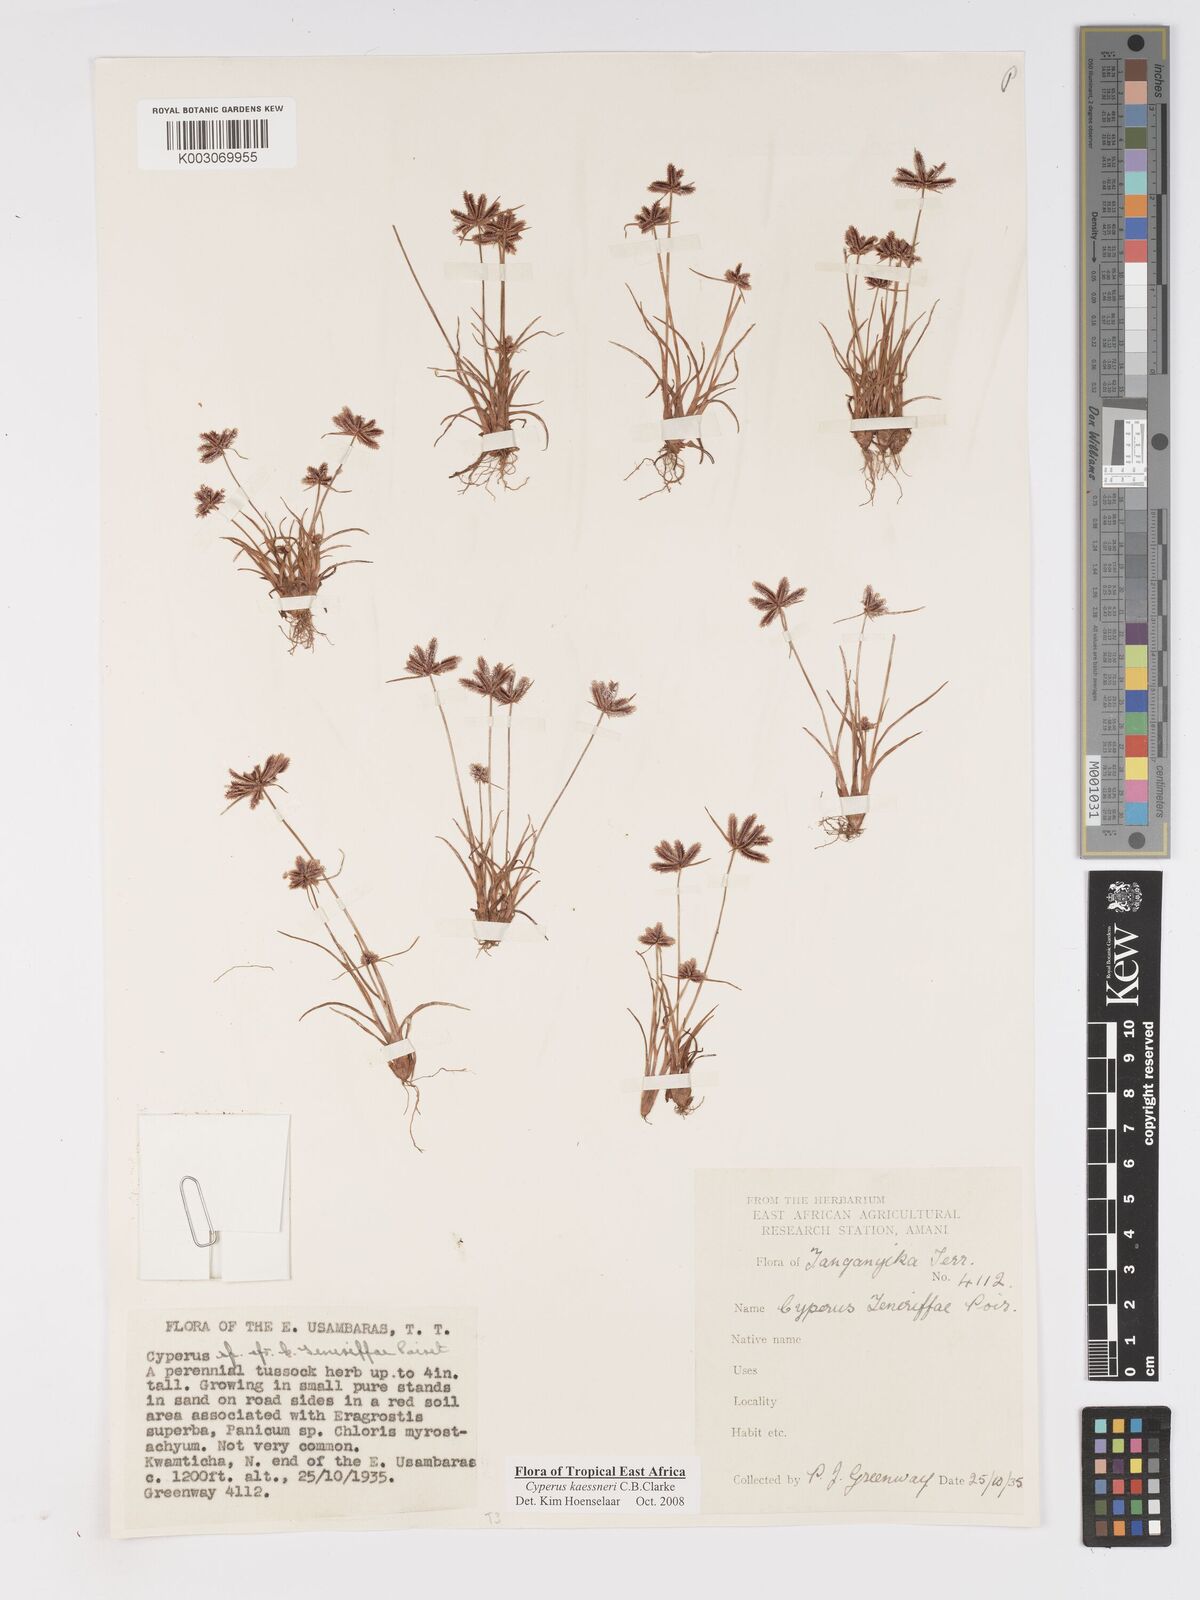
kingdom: Plantae
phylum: Tracheophyta
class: Liliopsida
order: Poales
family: Cyperaceae
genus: Cyperus
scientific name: Cyperus kaessneri
